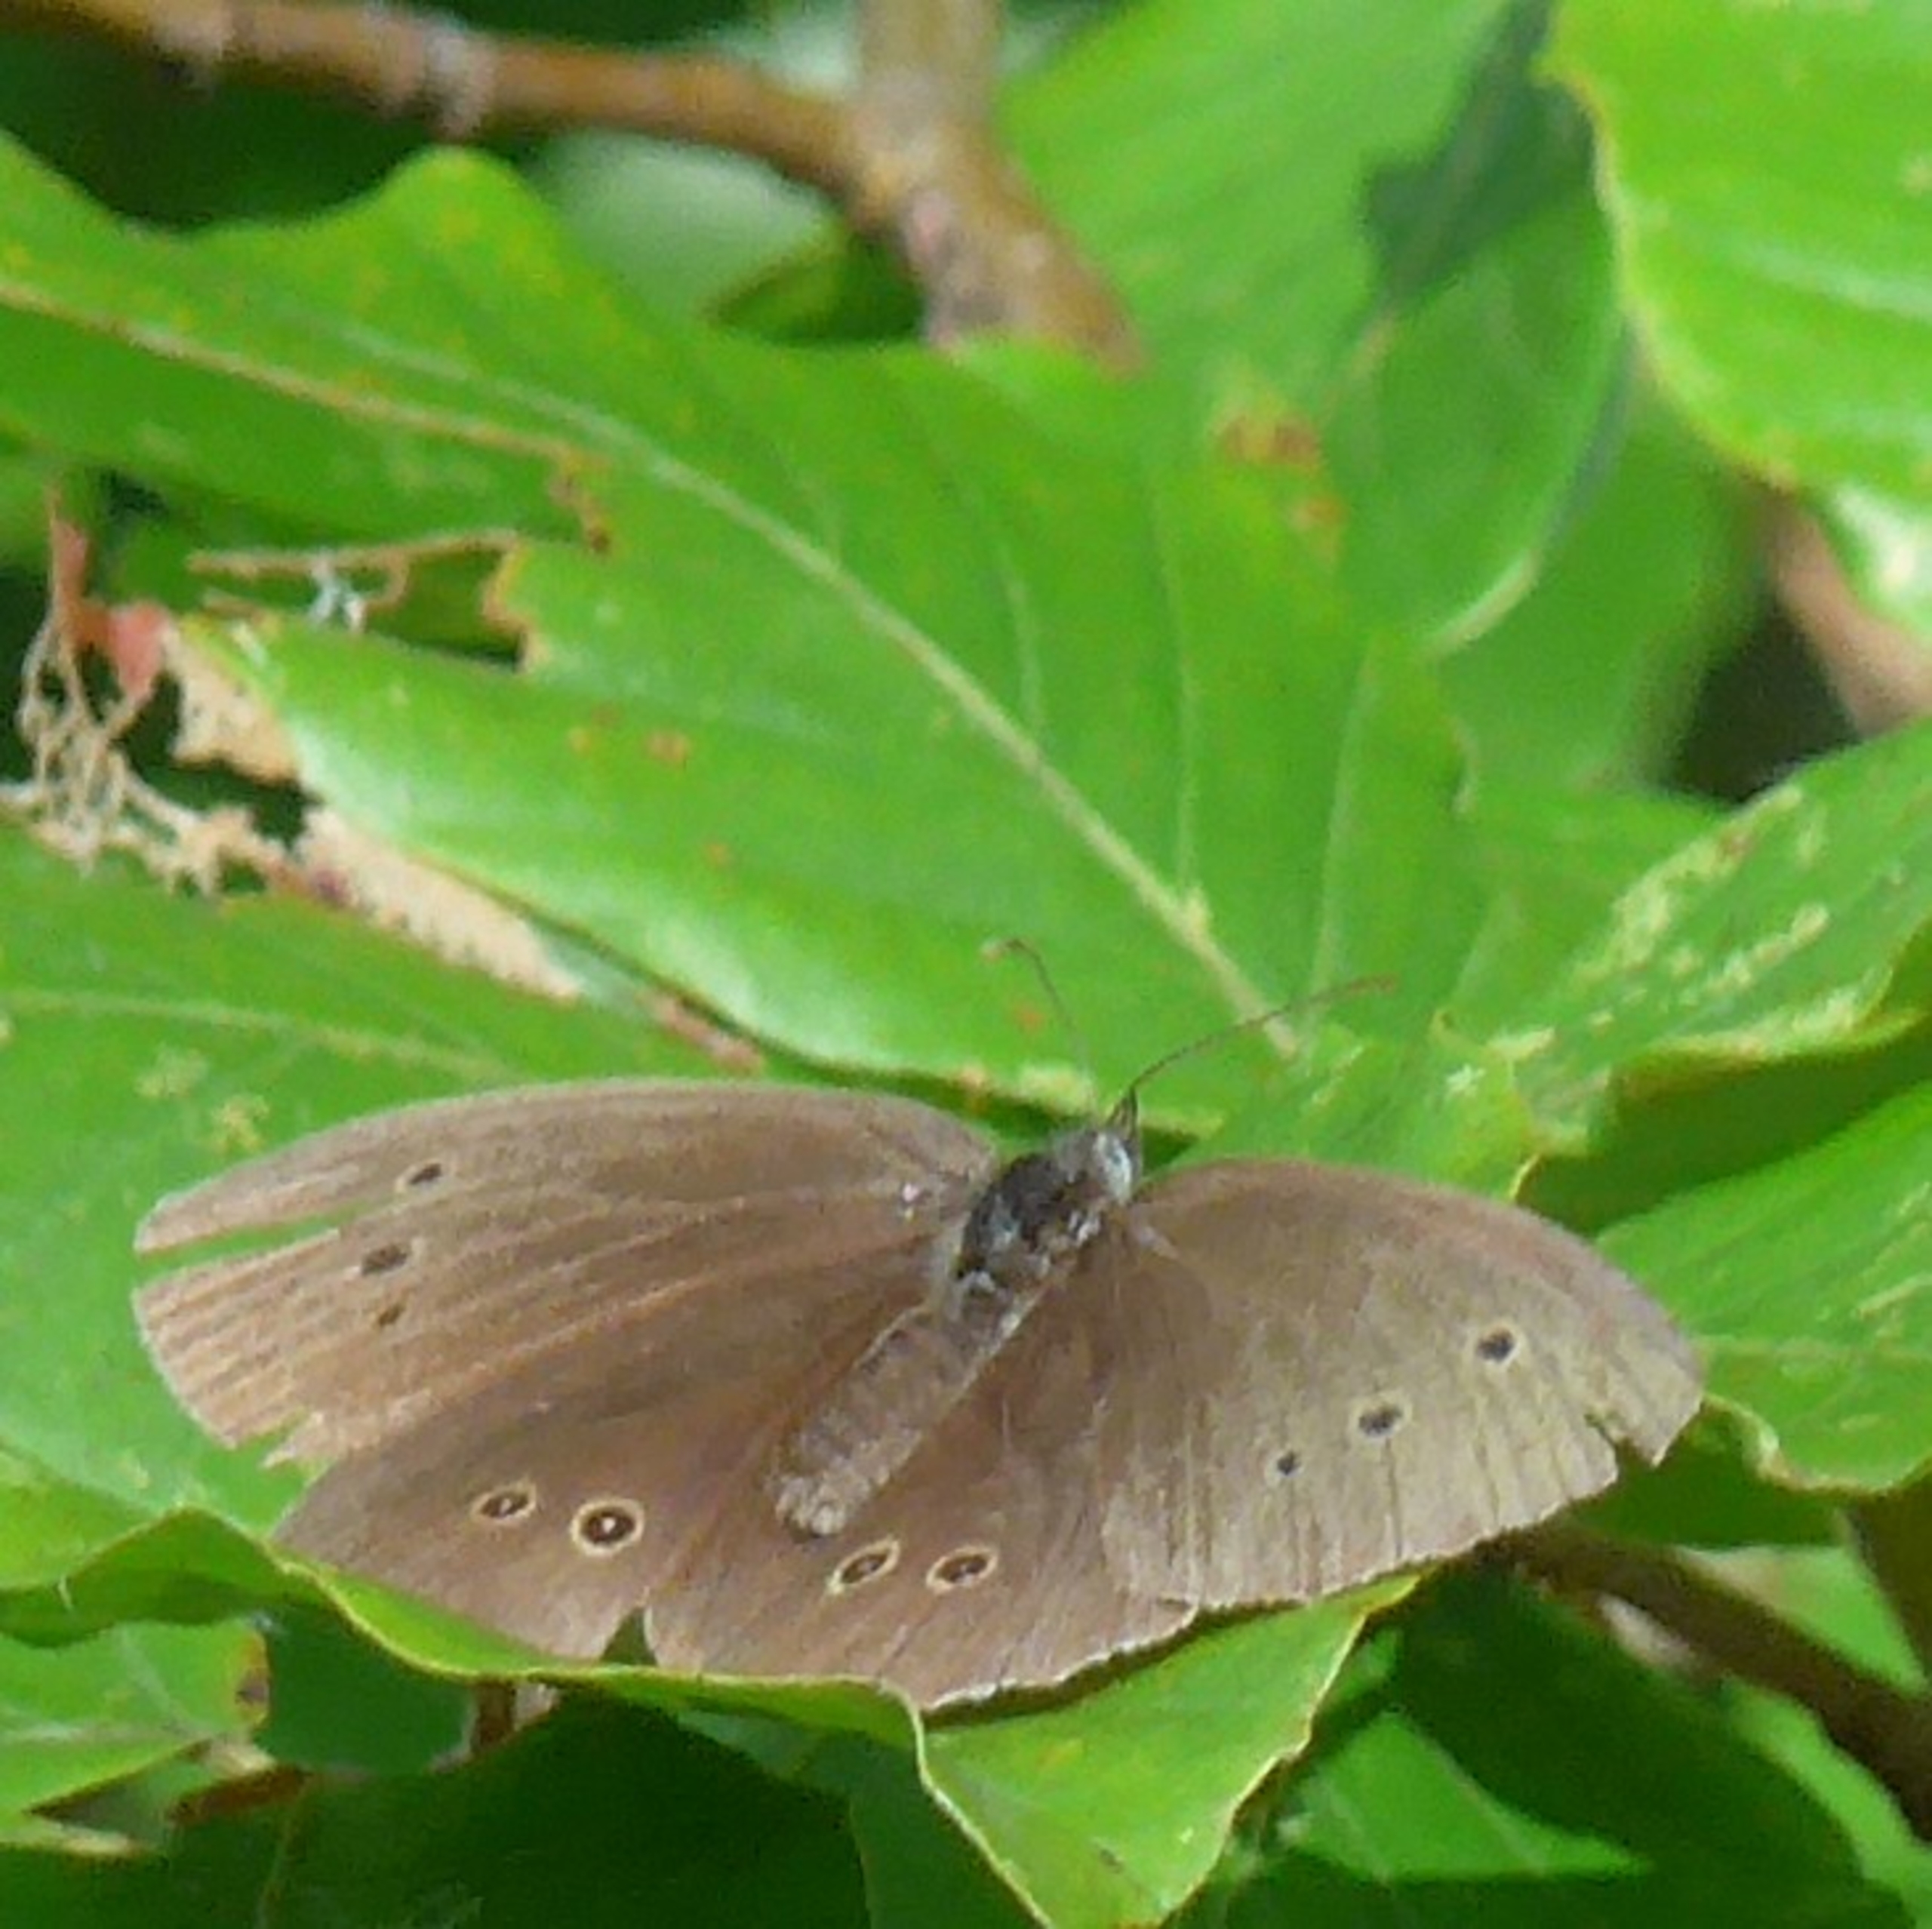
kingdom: Animalia
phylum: Arthropoda
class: Insecta
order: Lepidoptera
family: Nymphalidae
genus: Aphantopus
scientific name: Aphantopus hyperantus
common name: Engrandøje
